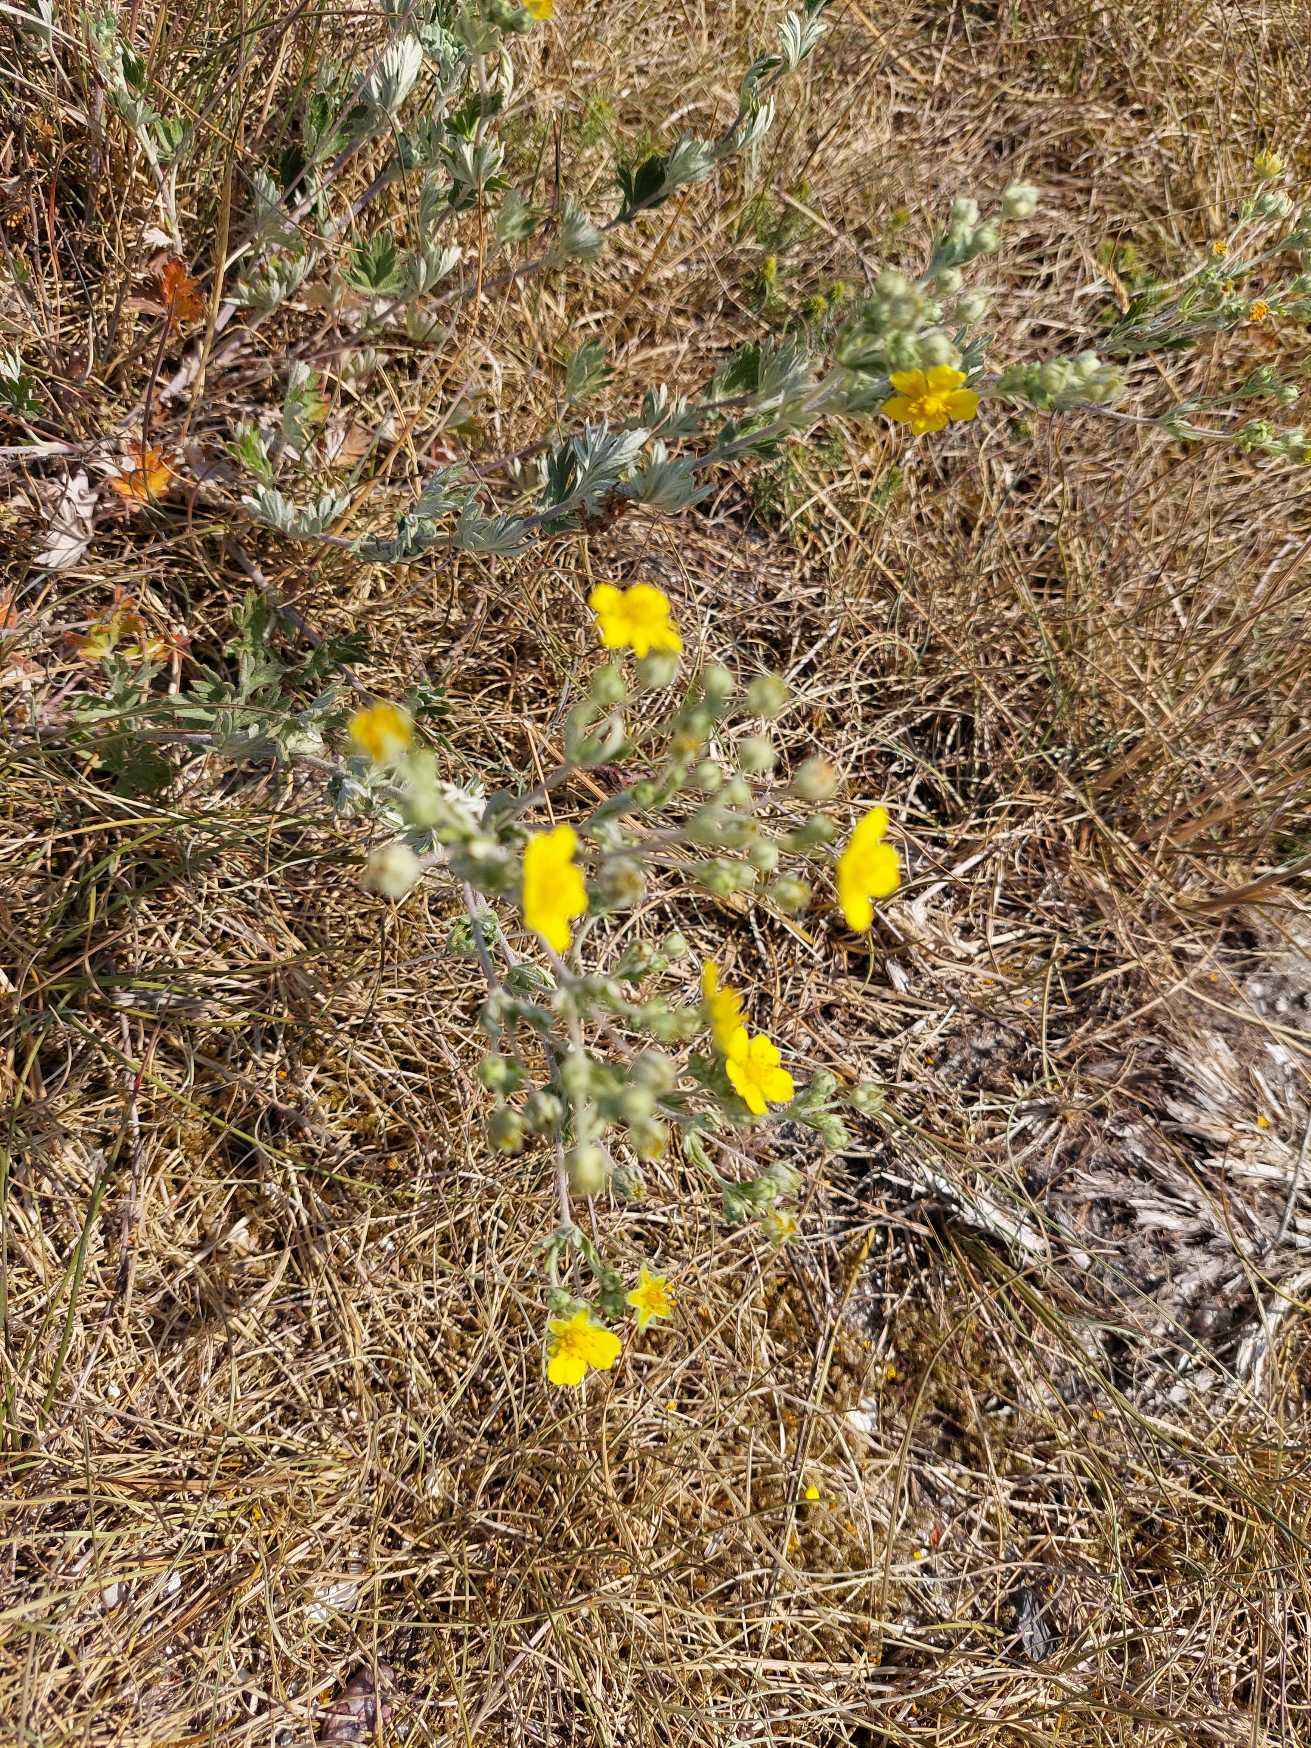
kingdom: Plantae
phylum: Tracheophyta
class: Magnoliopsida
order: Rosales
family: Rosaceae
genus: Potentilla
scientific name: Potentilla argentea
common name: Sølv-potentil
